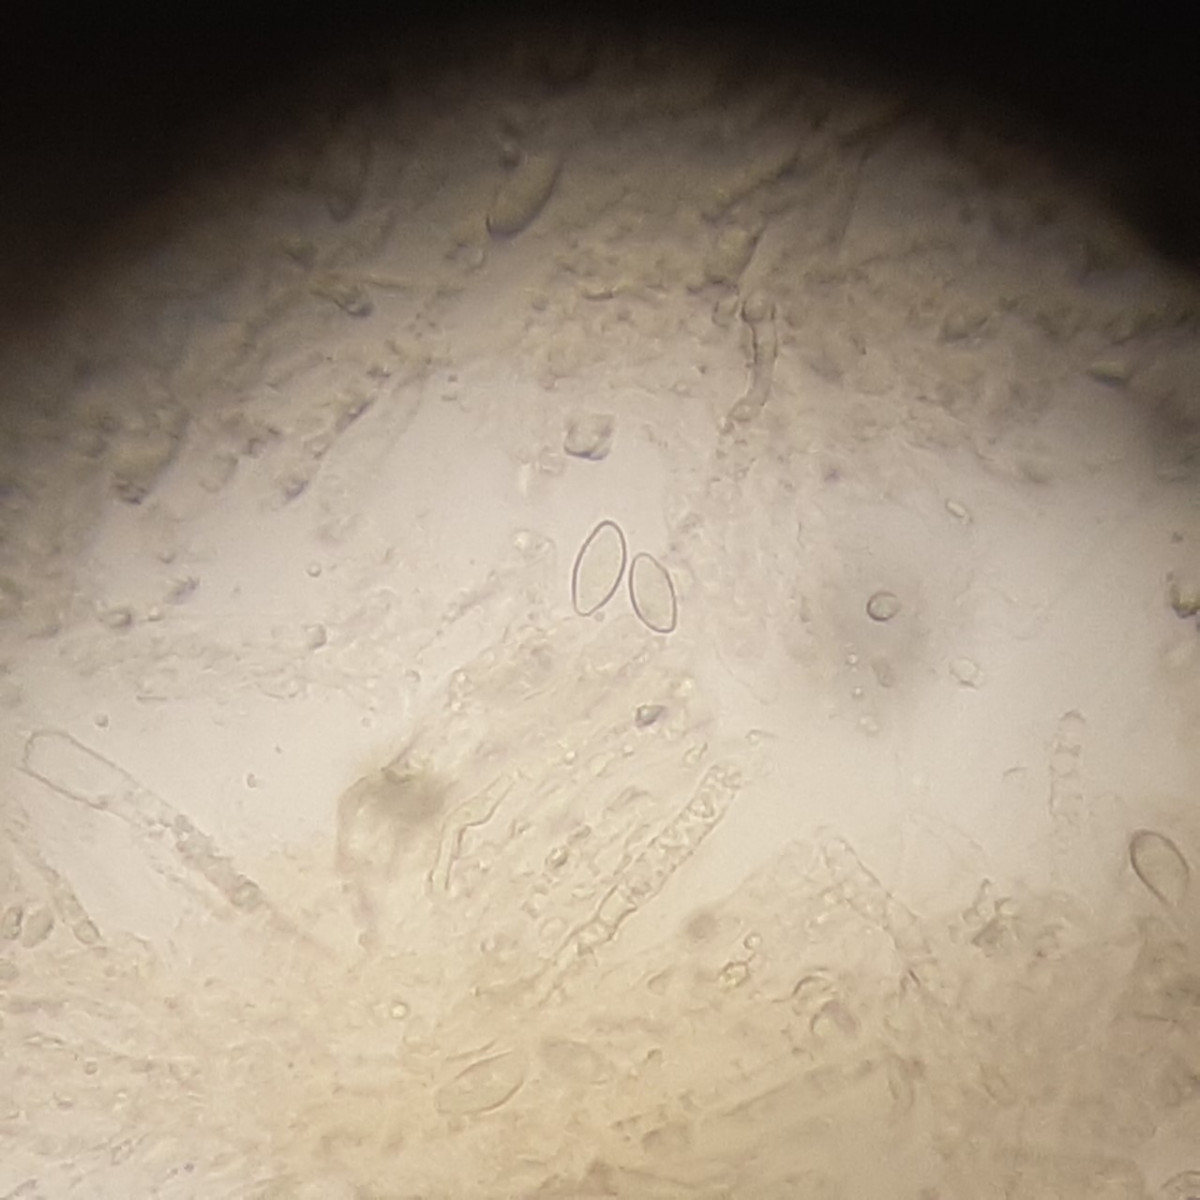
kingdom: Fungi
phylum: Basidiomycota
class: Agaricomycetes
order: Agaricales
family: Clavariaceae
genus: Clavulinopsis
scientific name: Clavulinopsis luteoalba
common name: abrikos-køllesvamp
